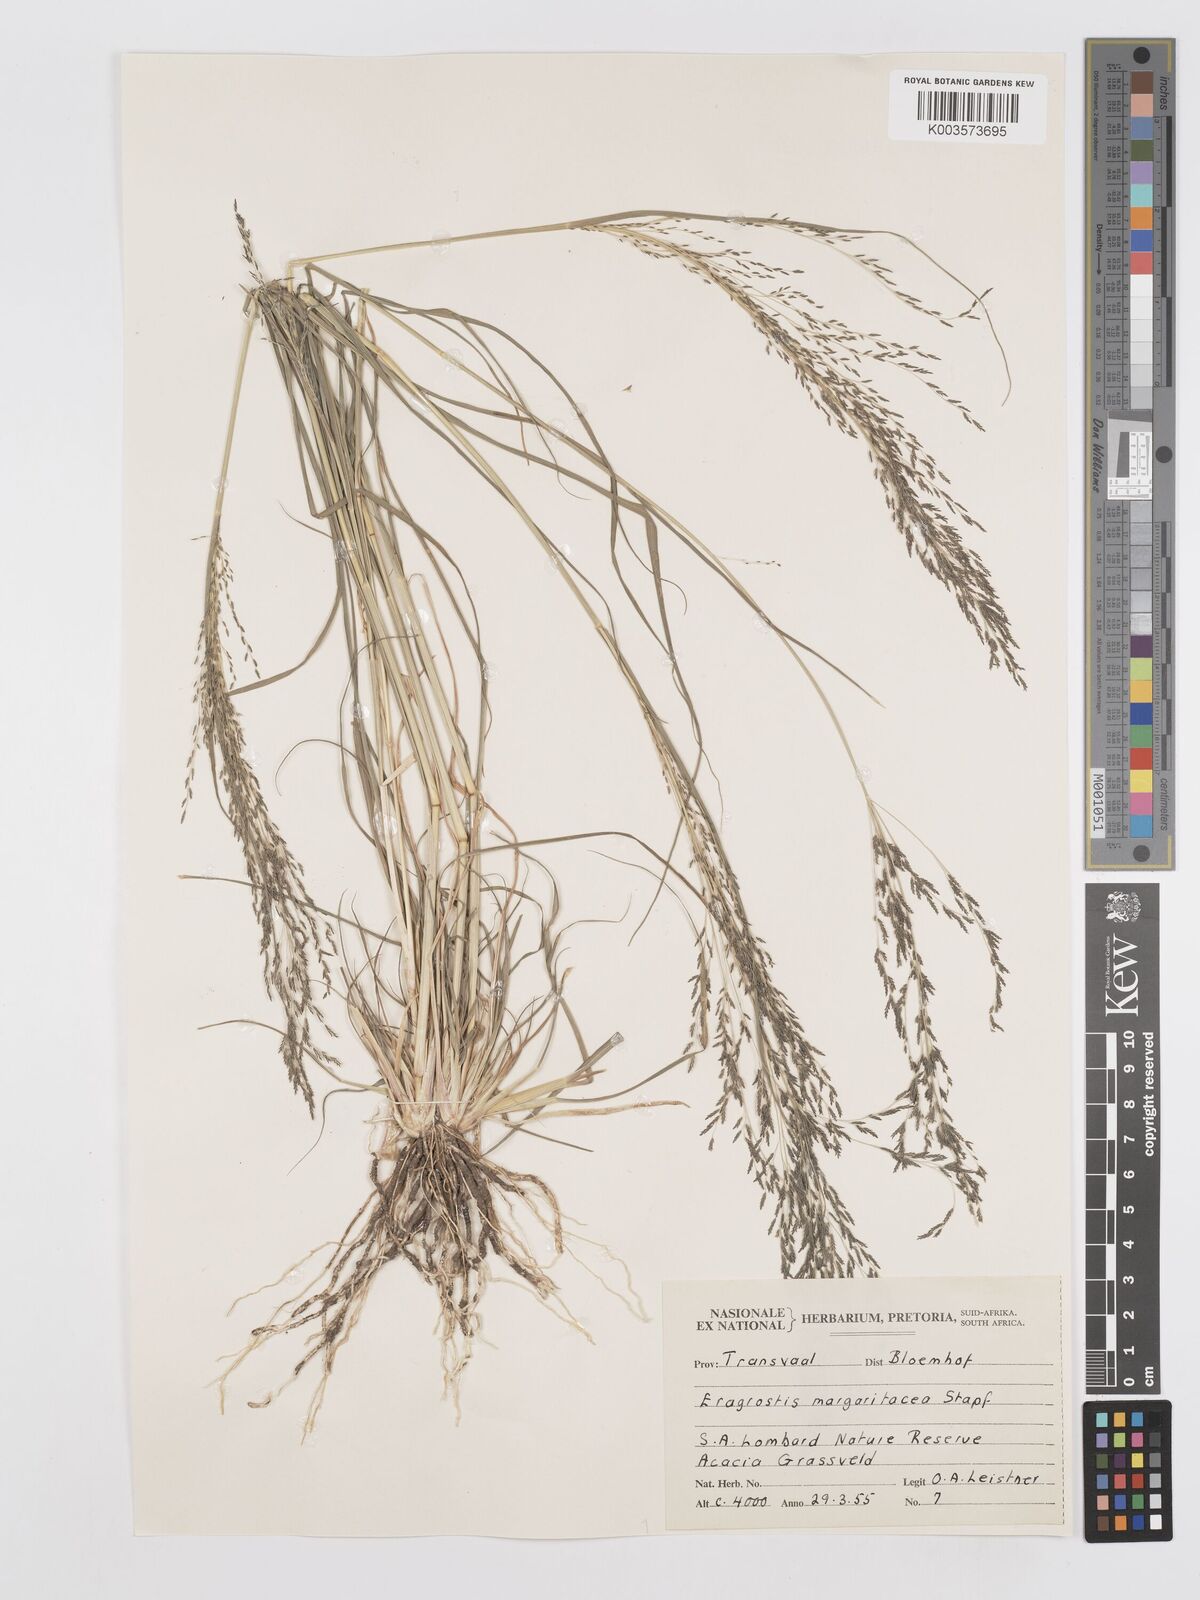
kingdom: Plantae
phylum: Tracheophyta
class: Liliopsida
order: Poales
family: Poaceae
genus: Eragrostis
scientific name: Eragrostis rotifer
